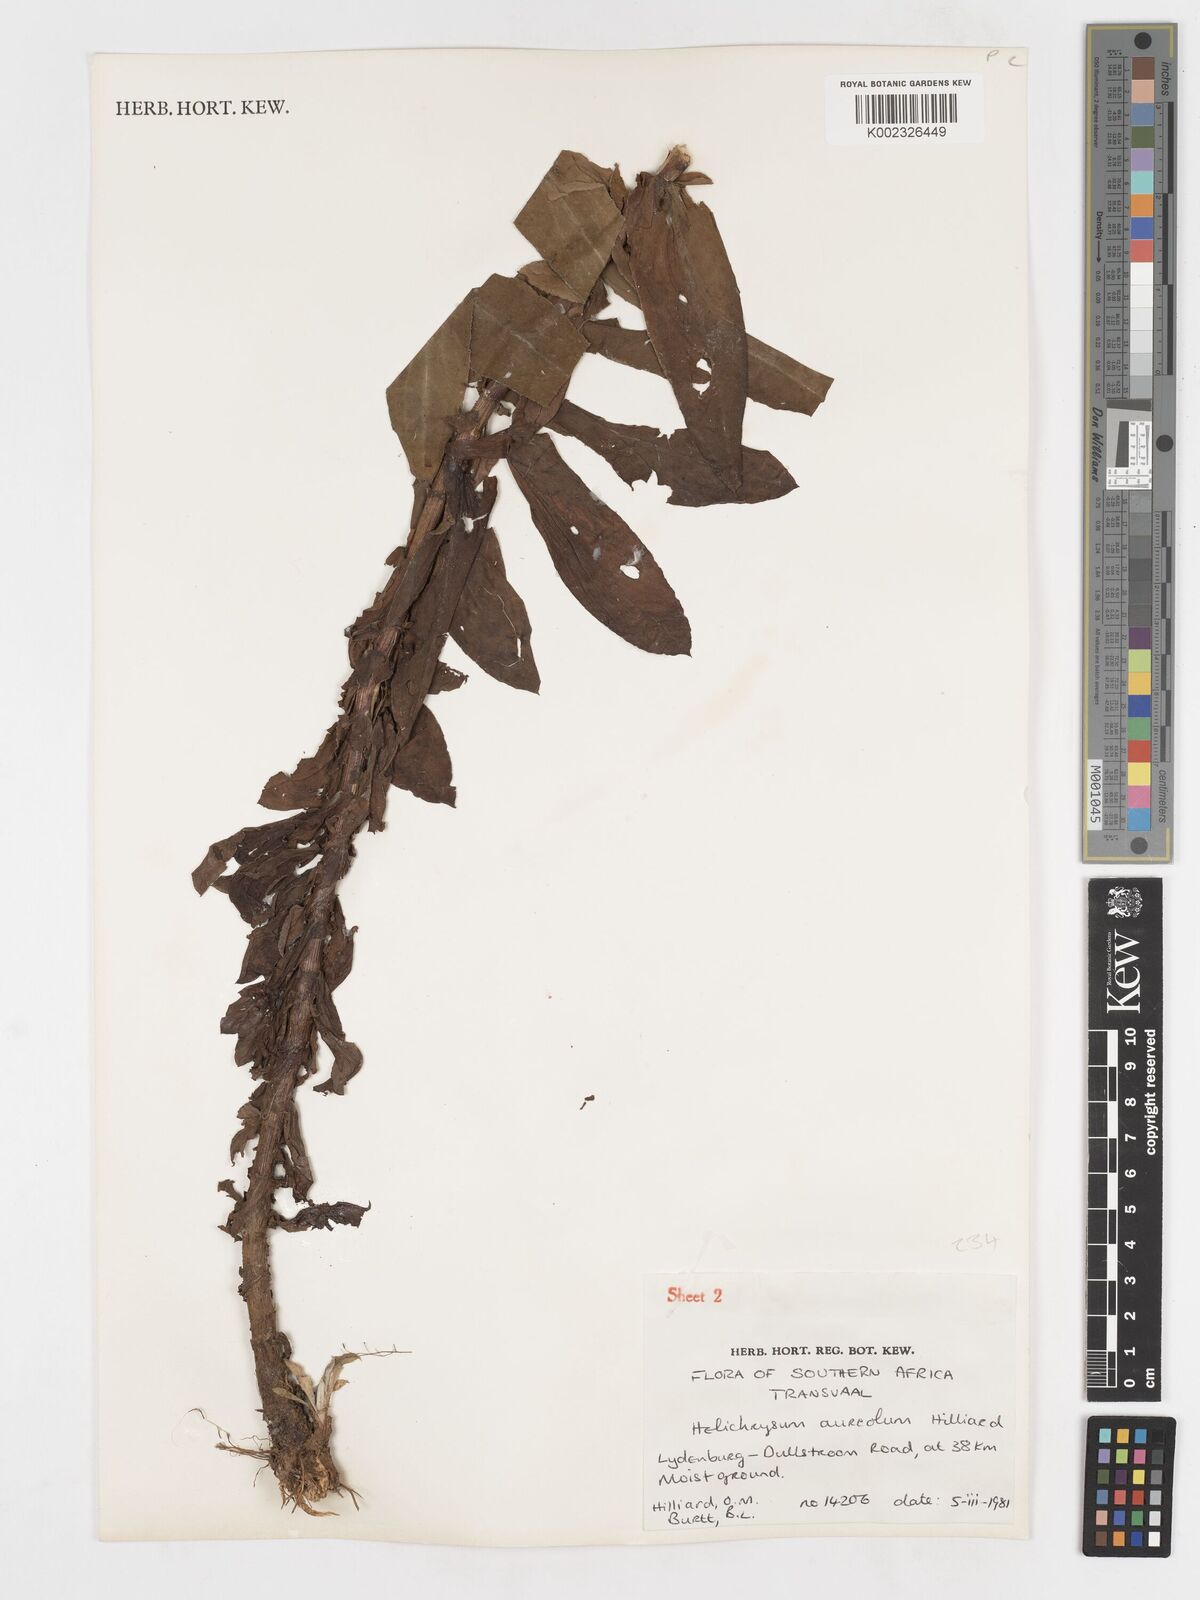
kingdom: Plantae
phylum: Tracheophyta
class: Magnoliopsida
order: Asterales
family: Asteraceae
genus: Helichrysum
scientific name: Helichrysum aureolum
